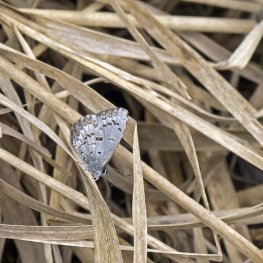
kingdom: Animalia
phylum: Arthropoda
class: Insecta
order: Lepidoptera
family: Lycaenidae
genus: Celastrina
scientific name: Celastrina lucia
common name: Northern Spring Azure
